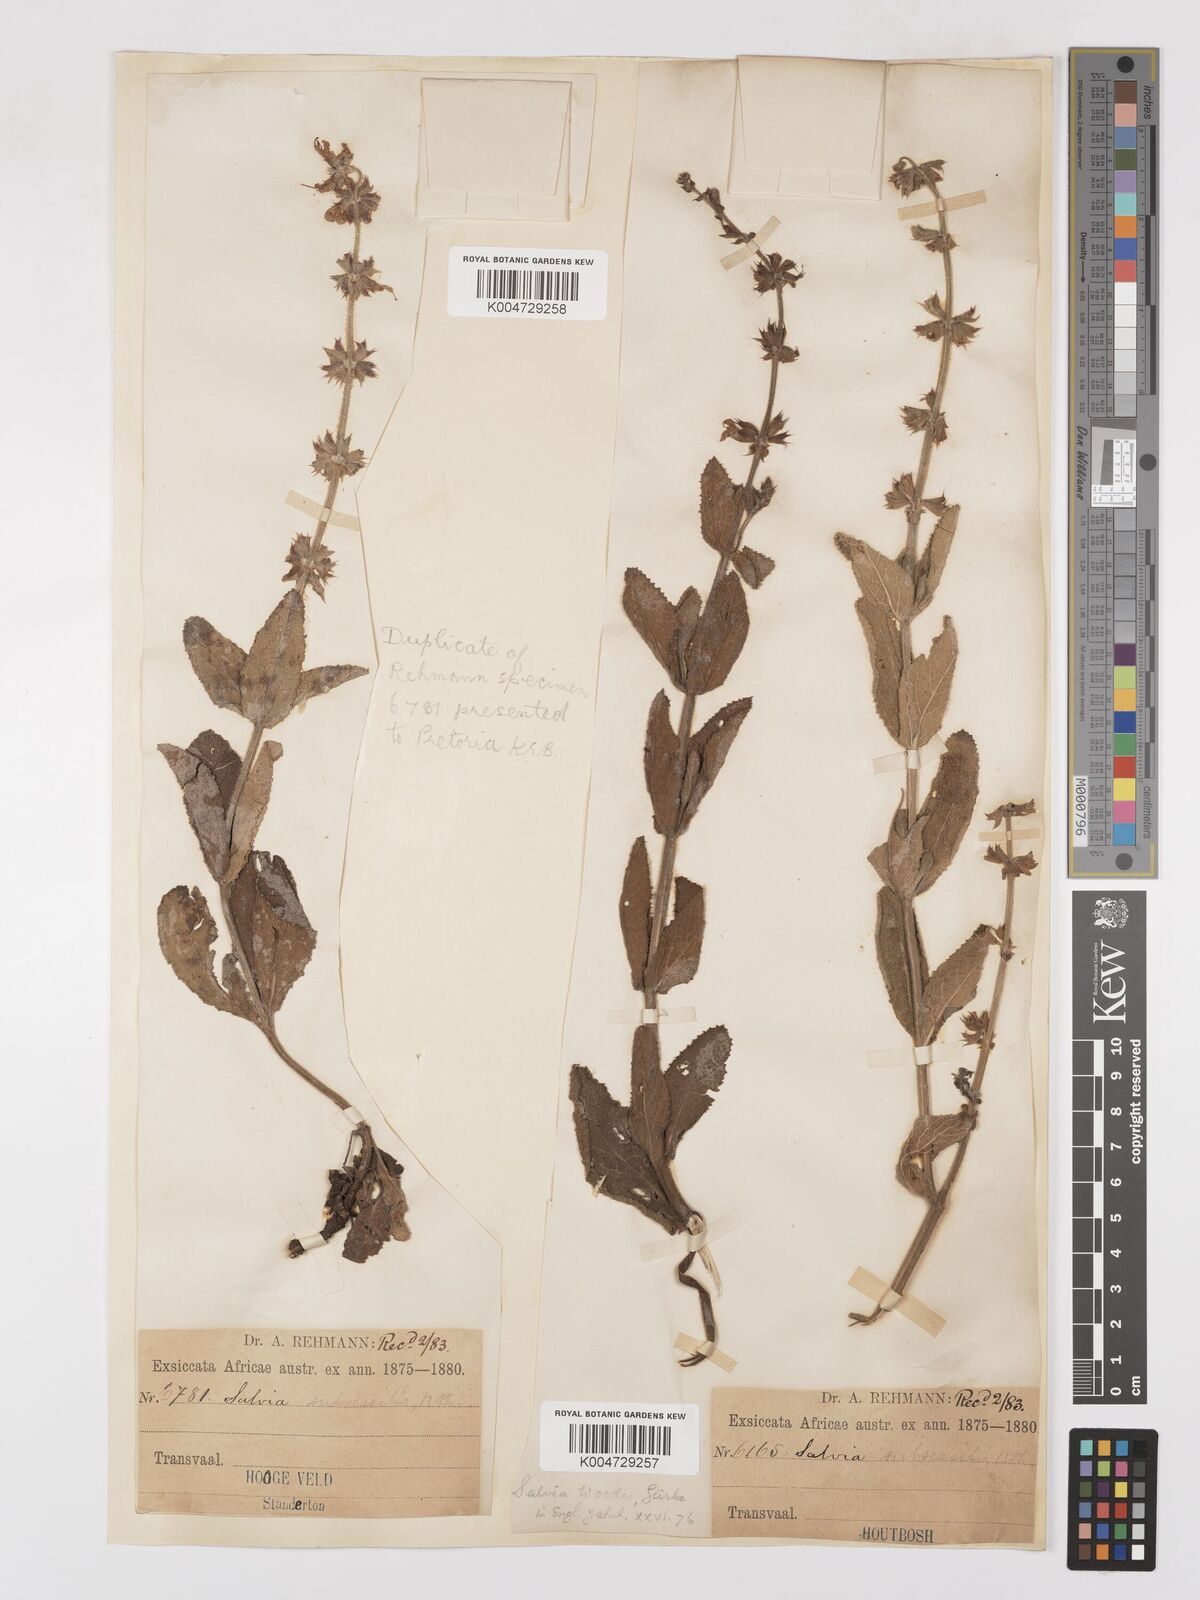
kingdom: Plantae
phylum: Tracheophyta
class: Magnoliopsida
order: Lamiales
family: Lamiaceae
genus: Salvia
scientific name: Salvia repens
